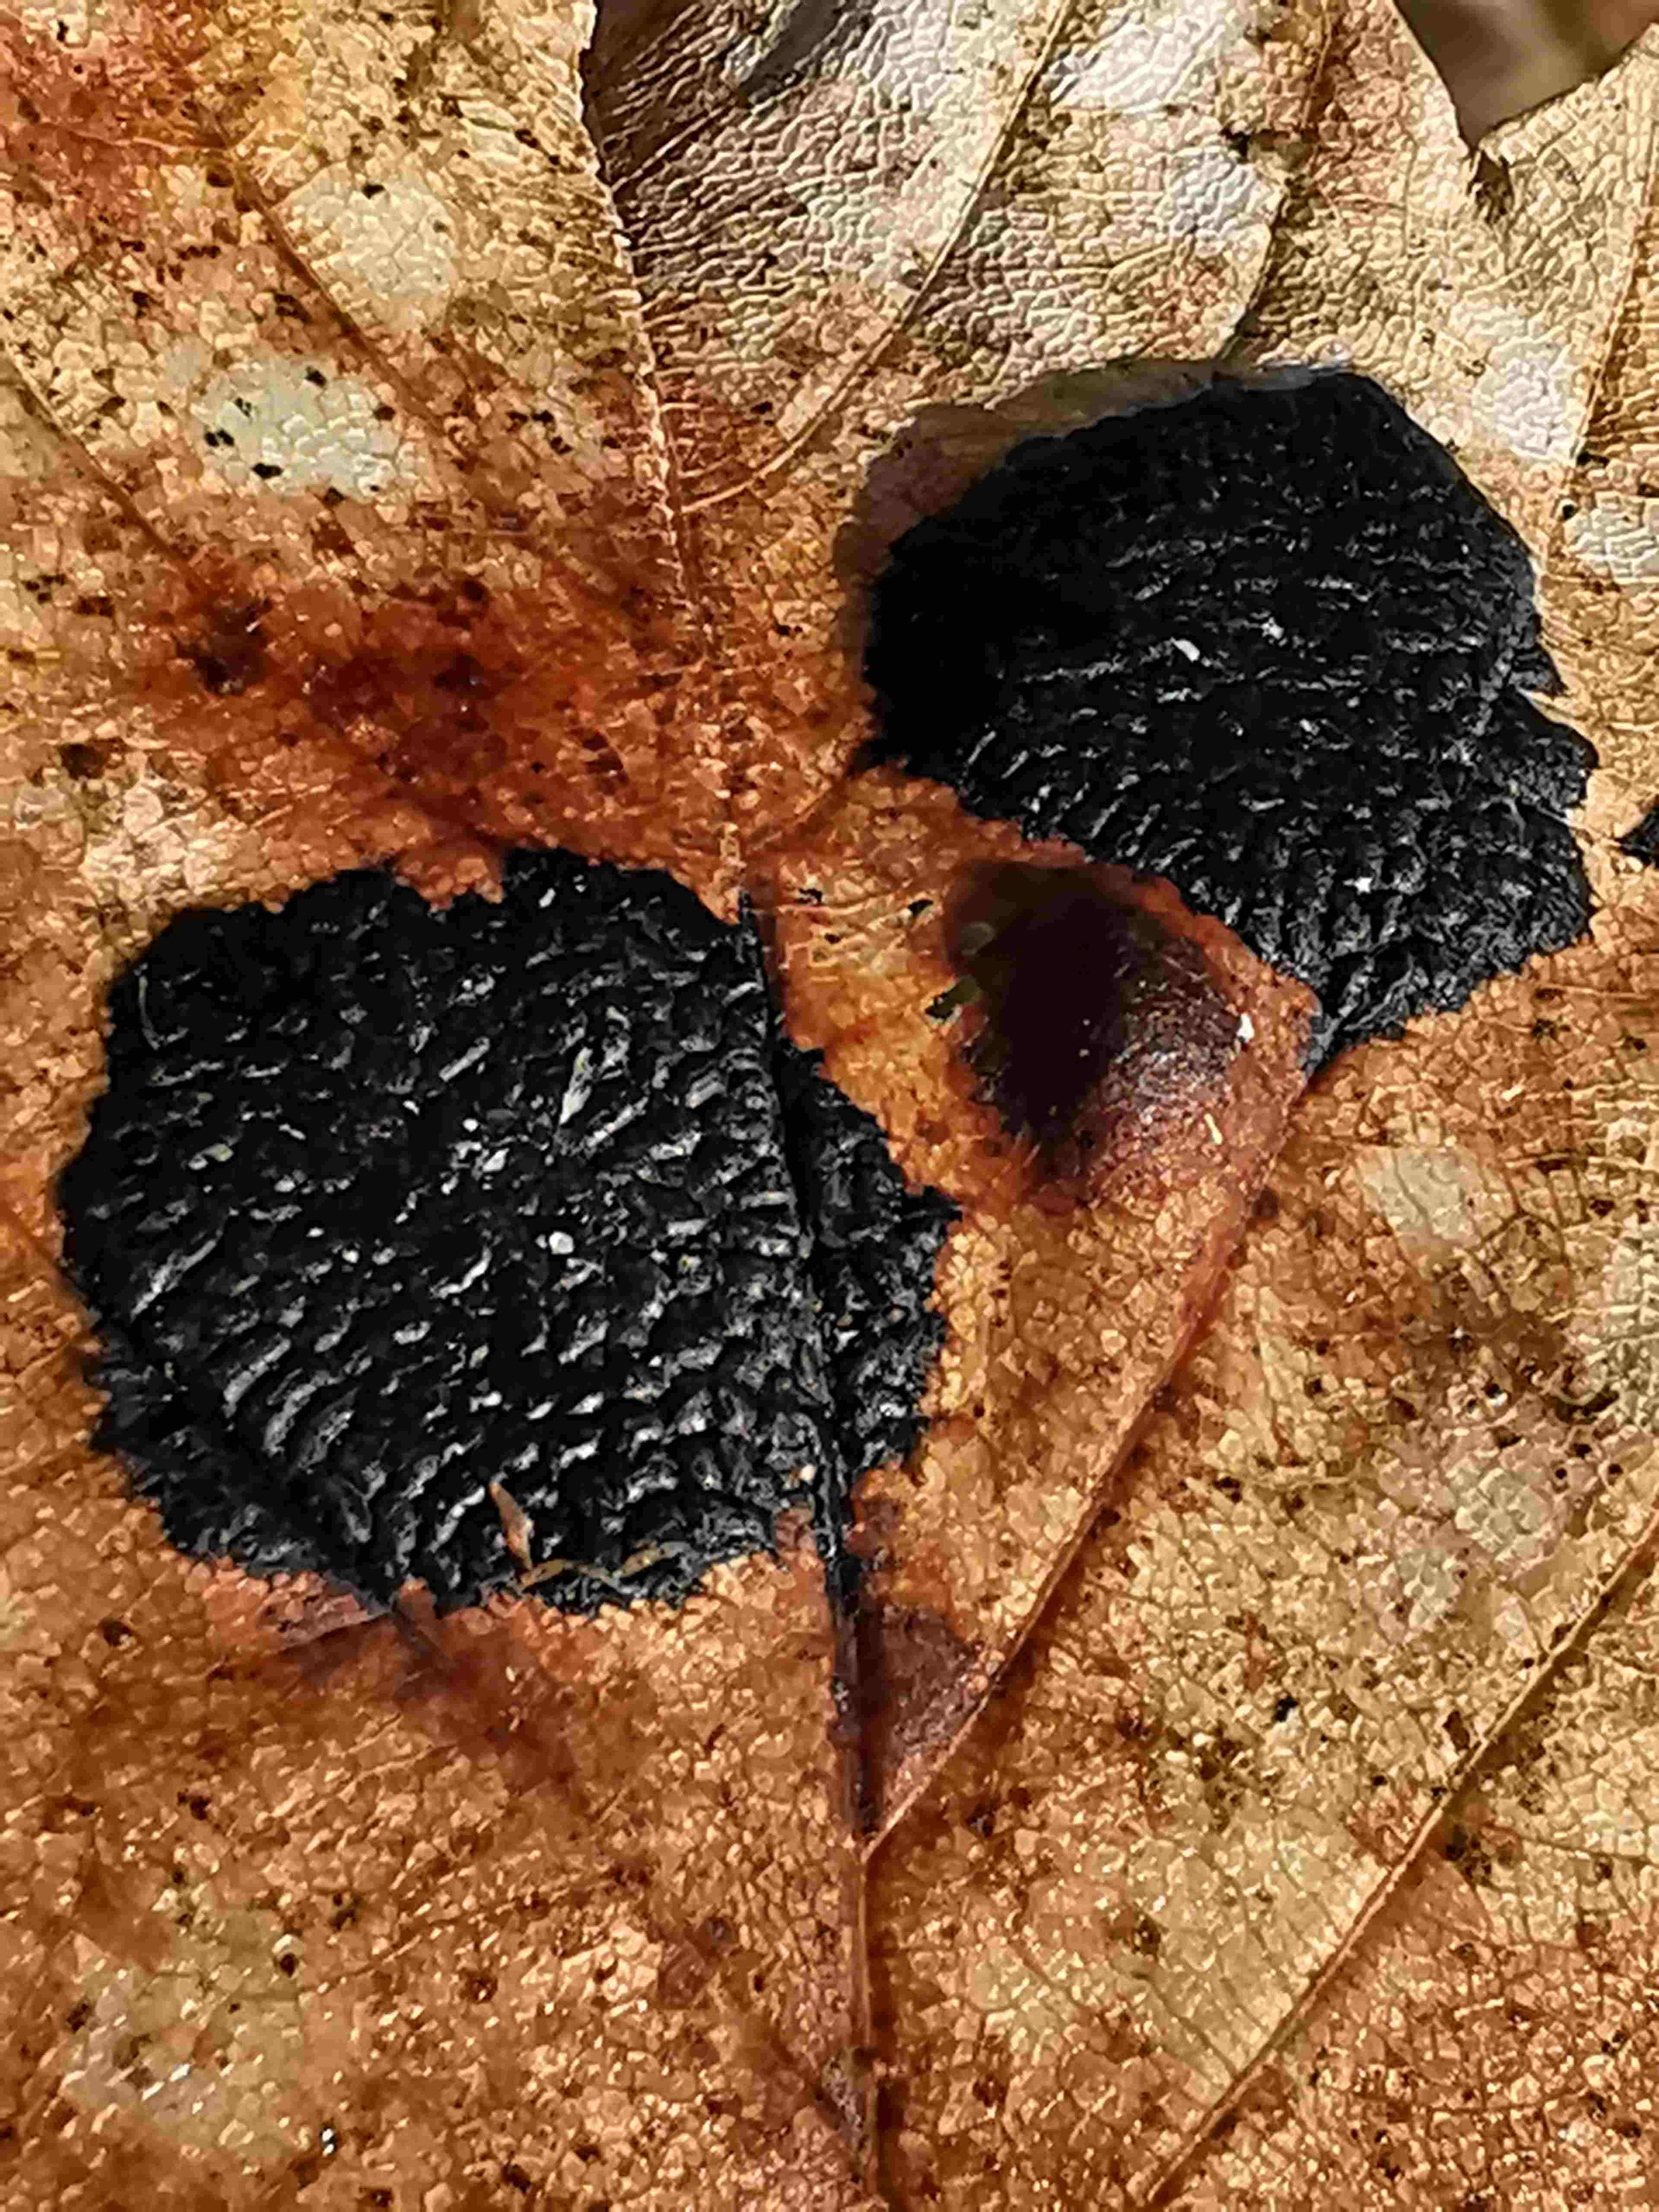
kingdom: Fungi
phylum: Ascomycota
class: Leotiomycetes
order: Rhytismatales
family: Rhytismataceae
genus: Rhytisma
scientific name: Rhytisma acerinum
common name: ahorn-rynkeplet
